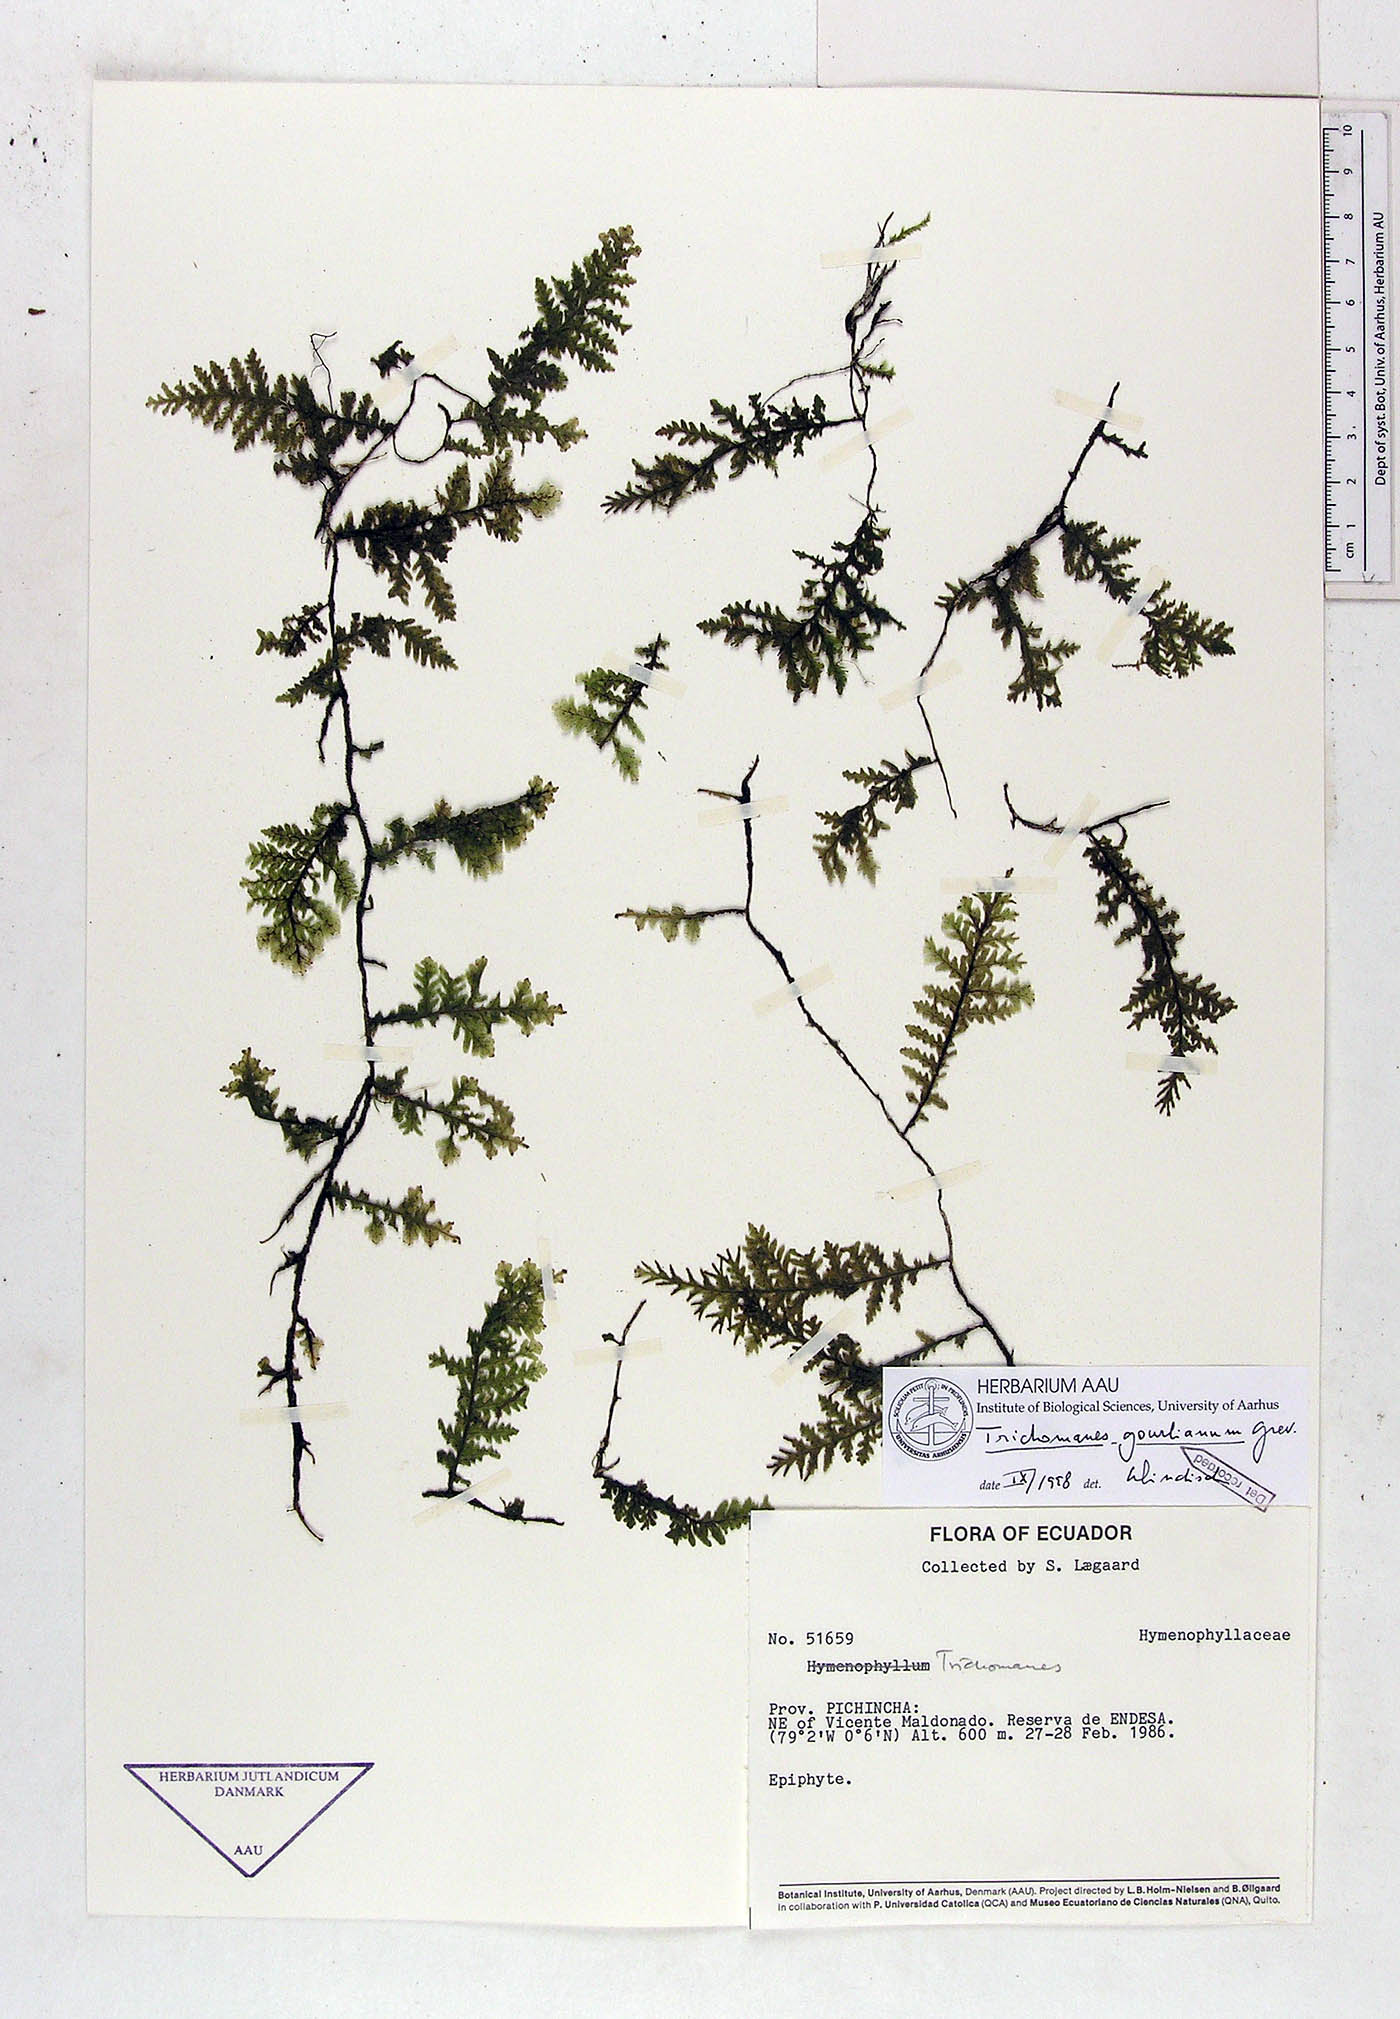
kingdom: Plantae
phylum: Tracheophyta
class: Polypodiopsida
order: Hymenophyllales
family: Hymenophyllaceae
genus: Didymoglossum
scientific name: Didymoglossum gourlianum
